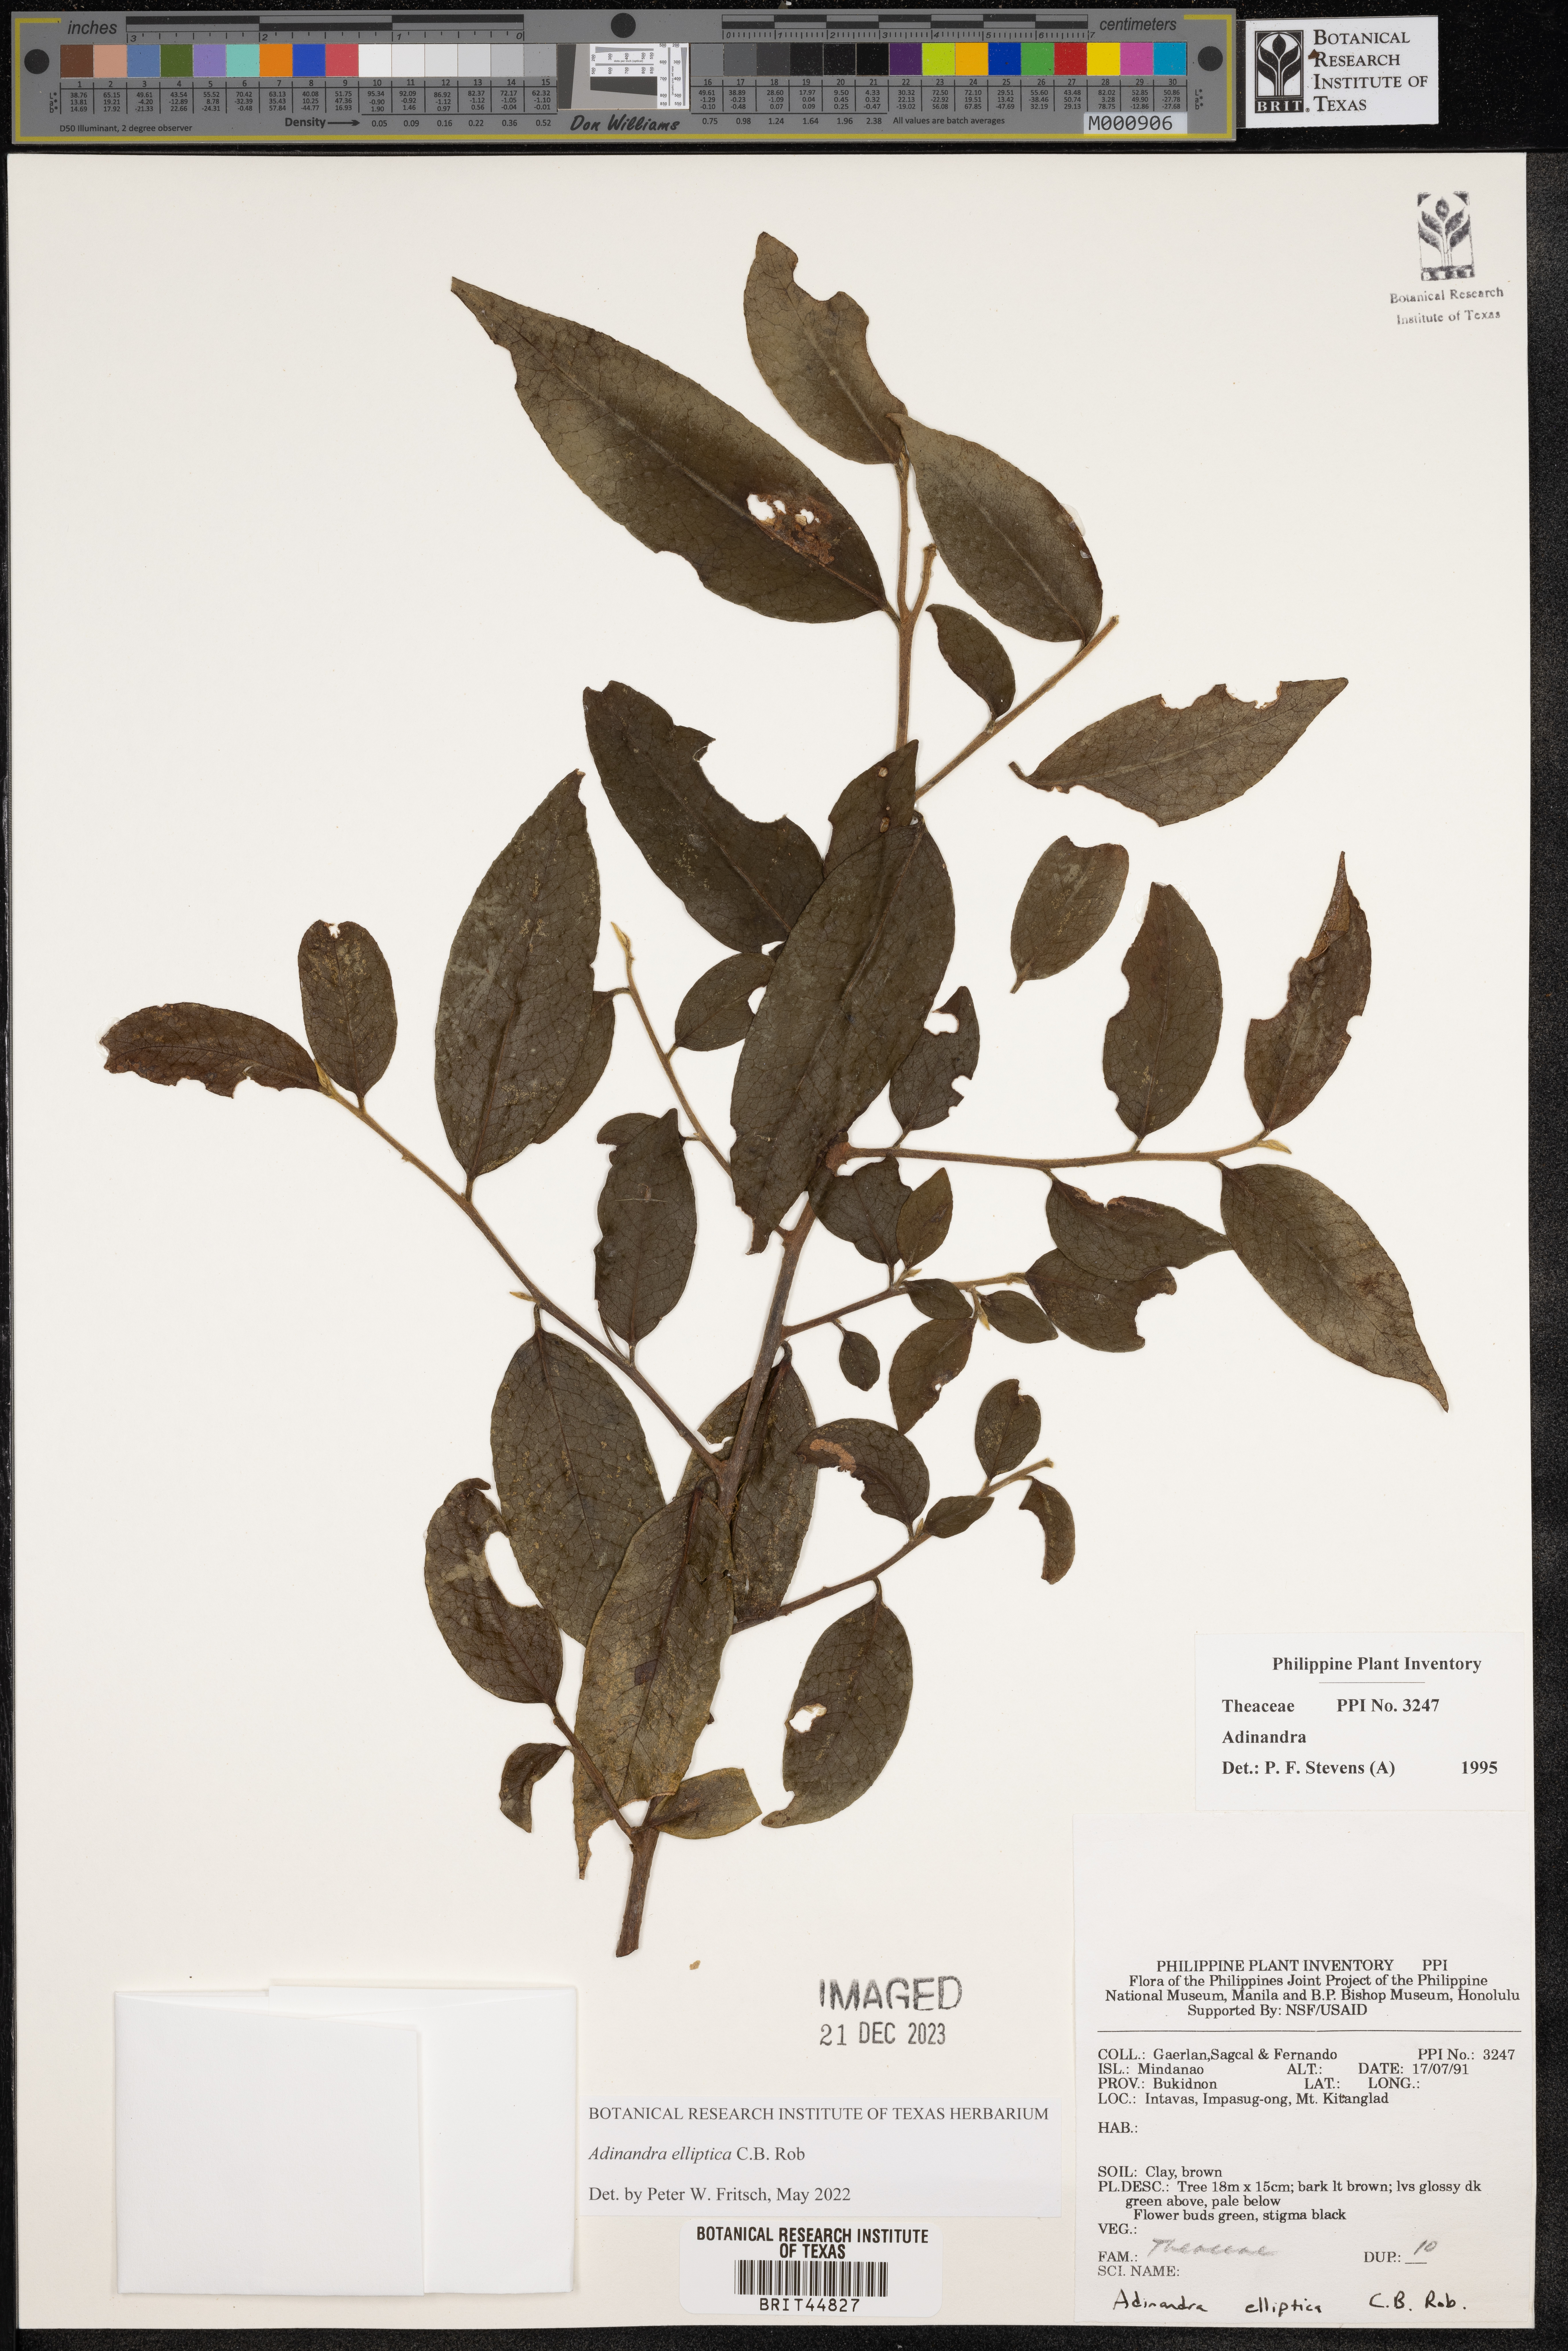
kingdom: Plantae
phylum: Tracheophyta
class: Magnoliopsida
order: Ericales
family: Pentaphylacaceae
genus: Adinandra
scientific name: Adinandra
